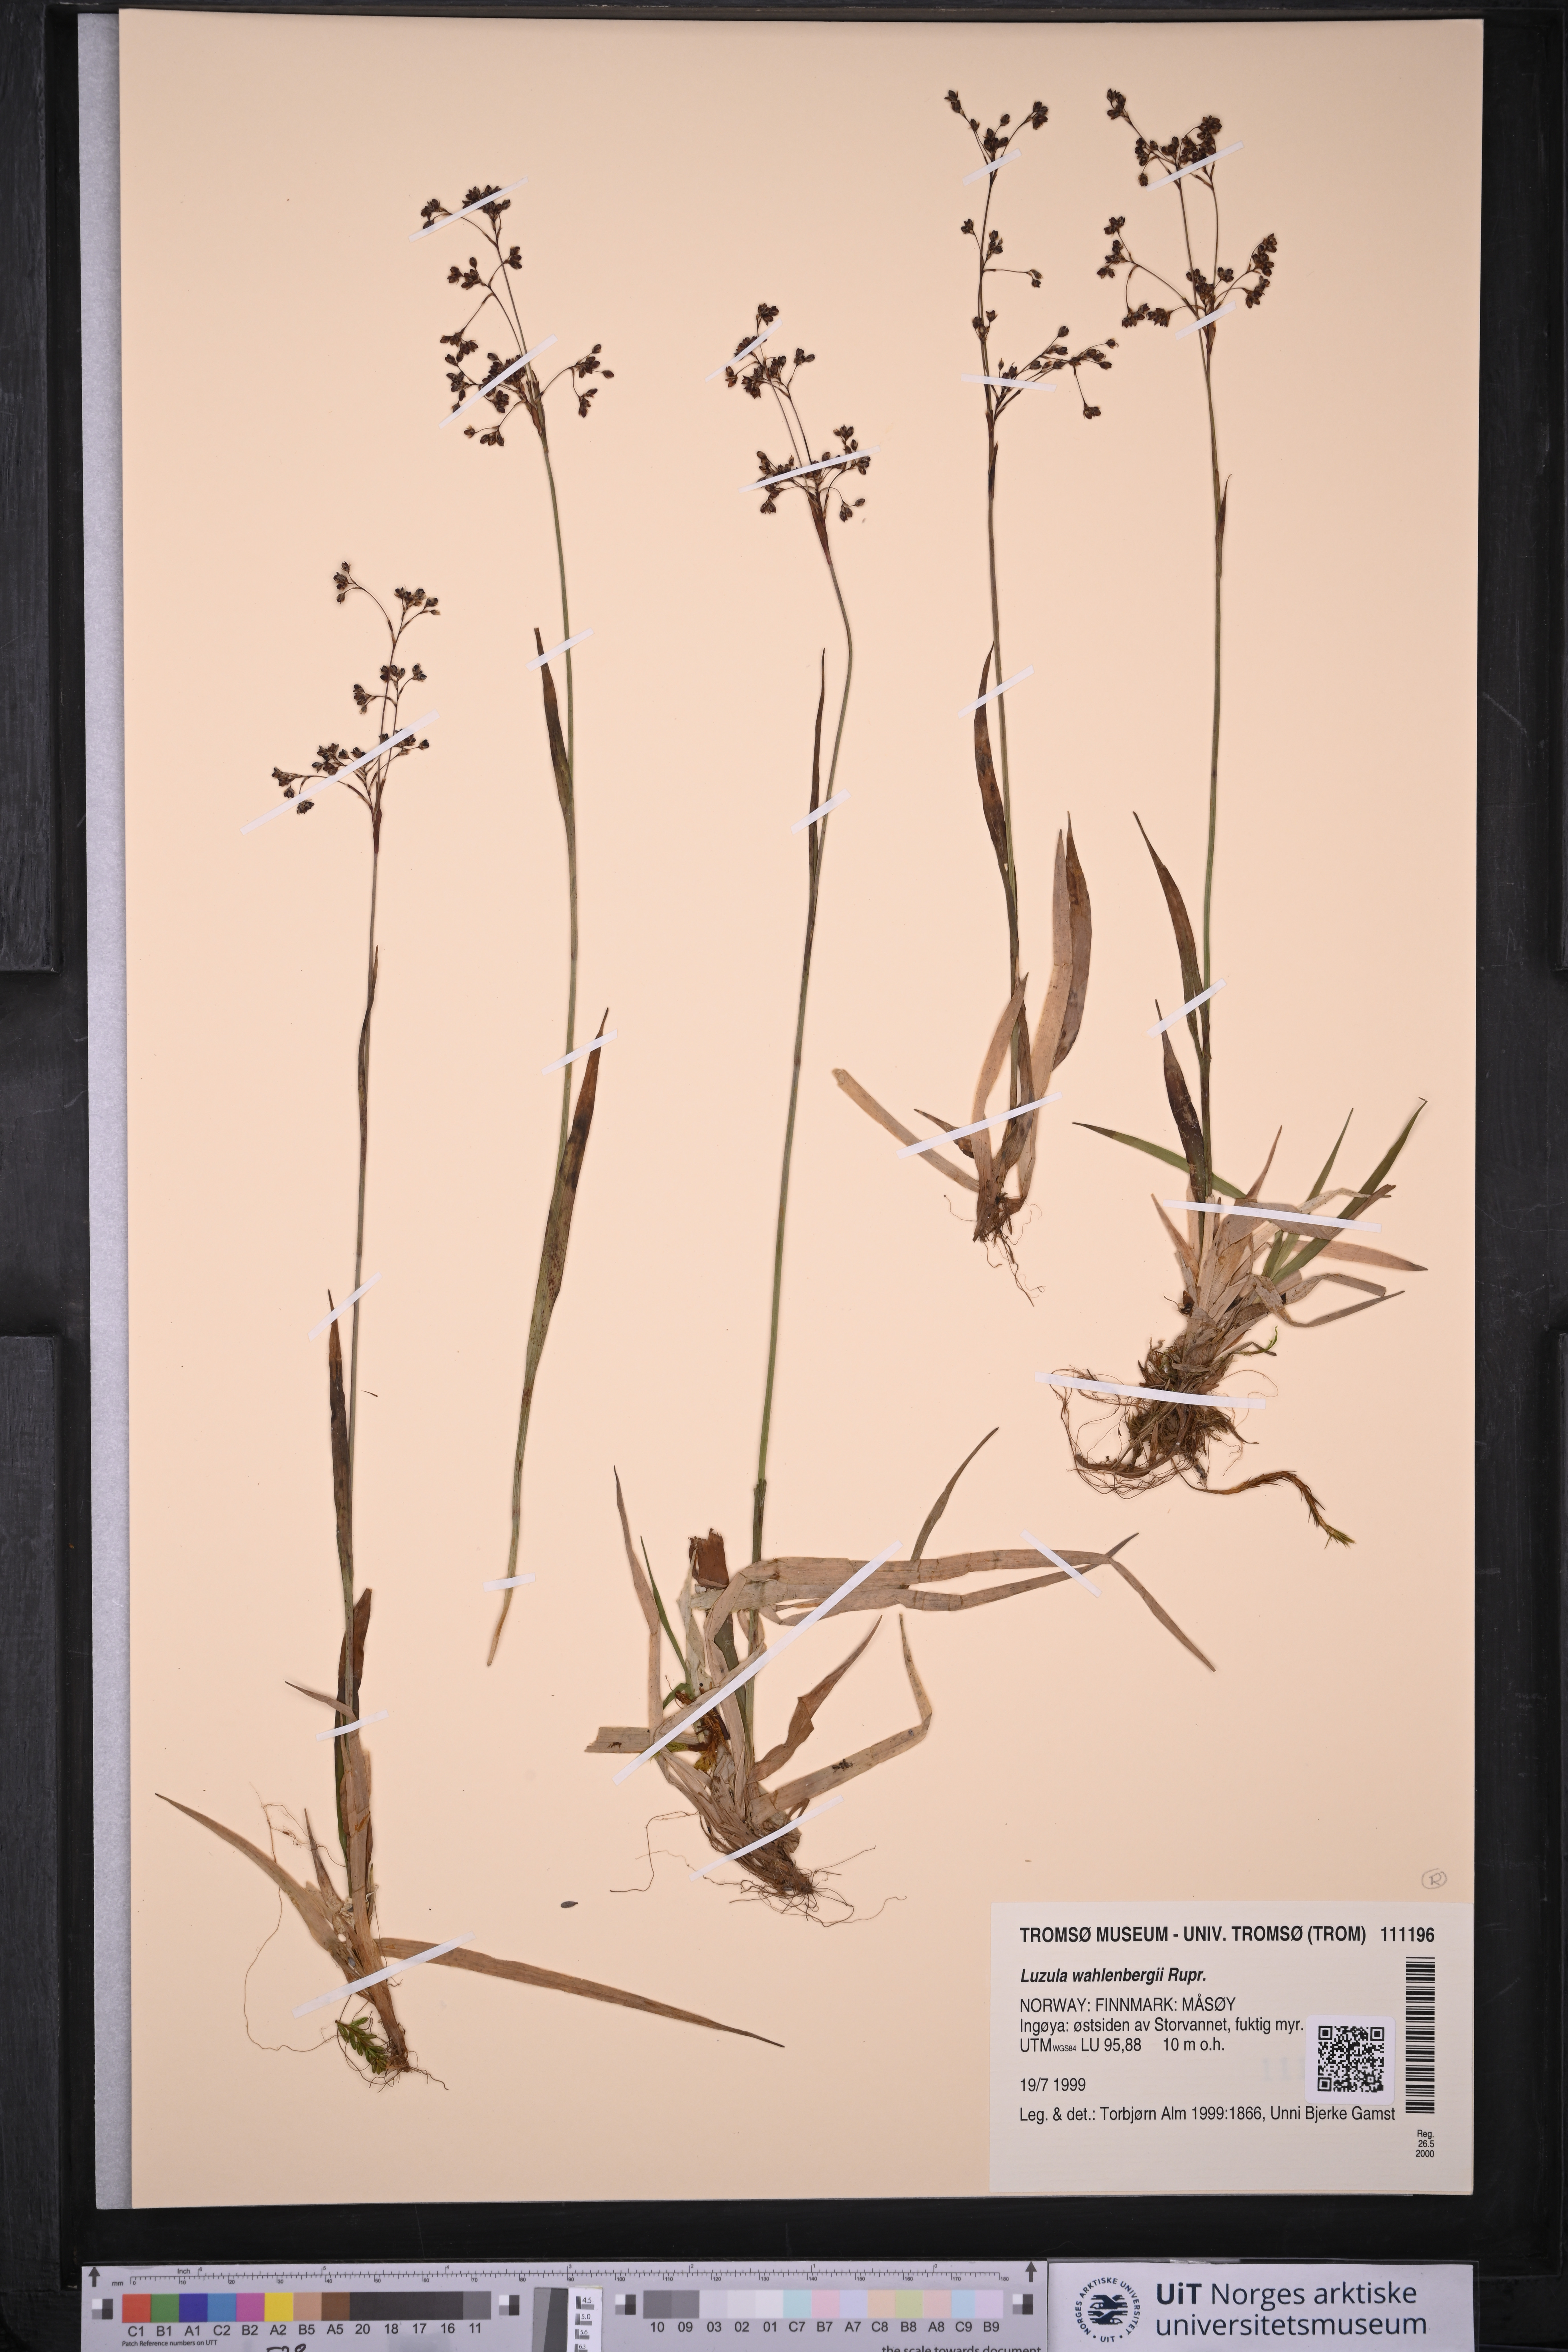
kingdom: Plantae
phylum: Tracheophyta
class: Liliopsida
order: Poales
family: Juncaceae
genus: Luzula
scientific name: Luzula wahlenbergii
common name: Wahlenberg's wood-rush
